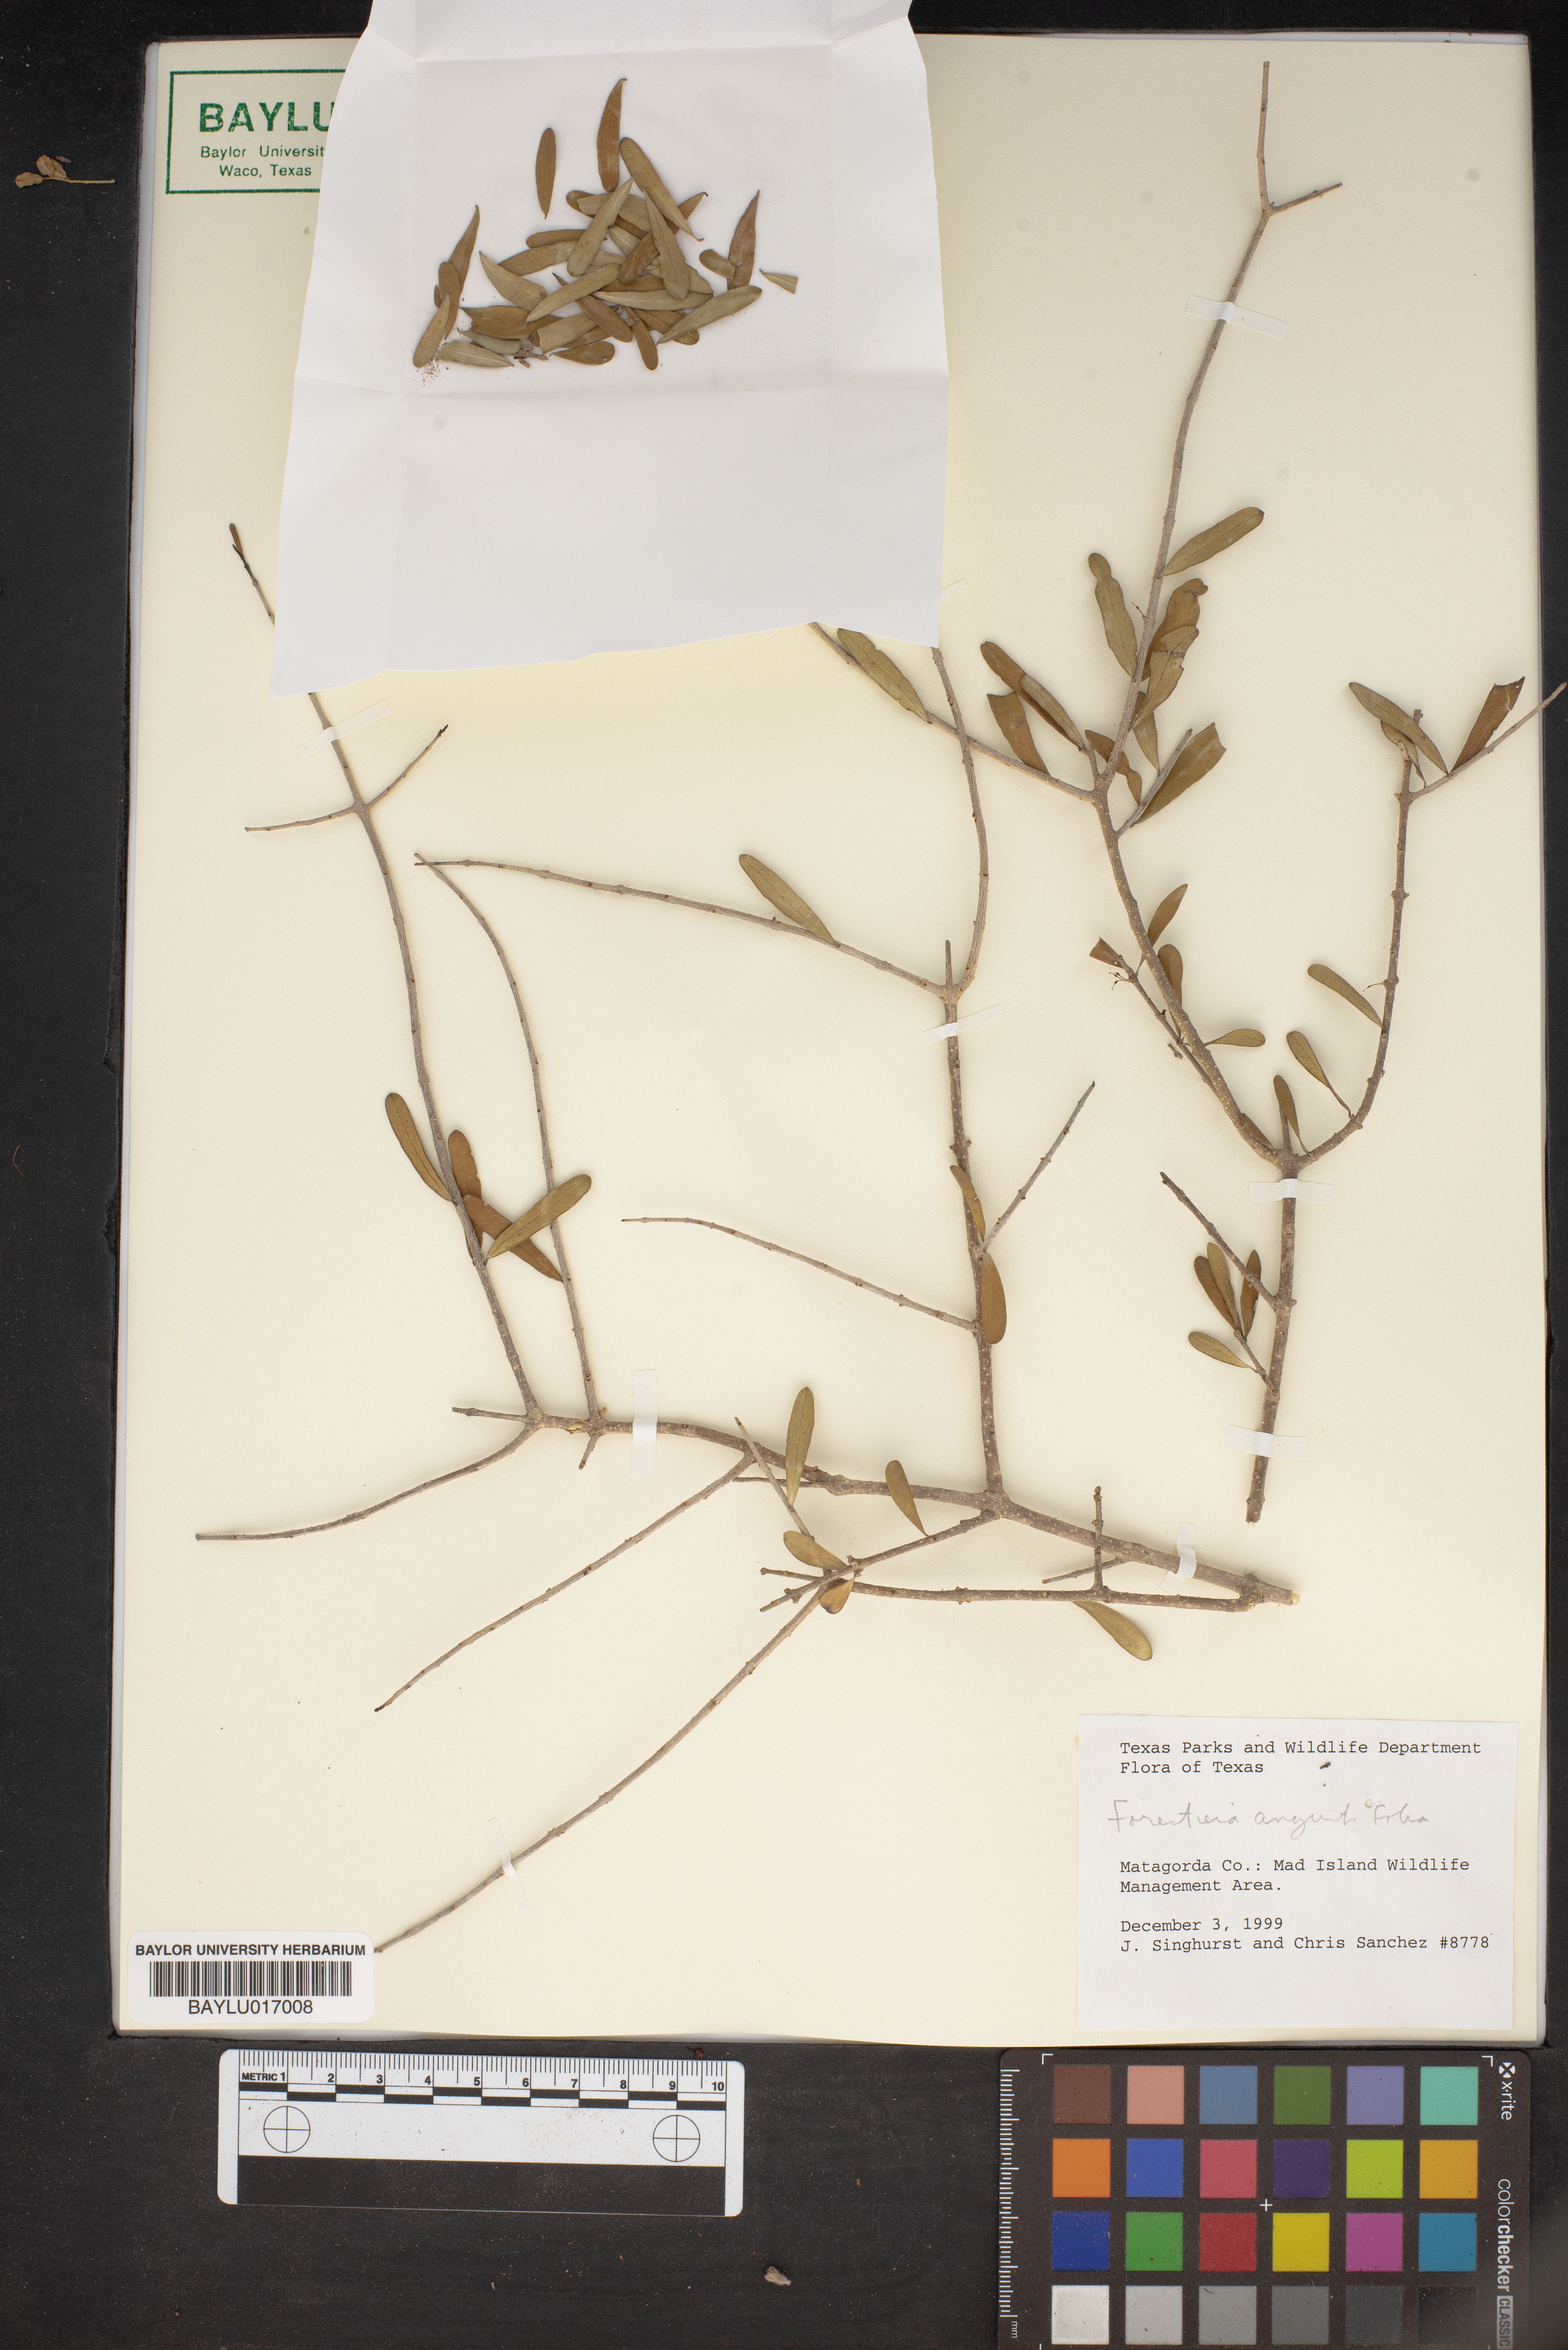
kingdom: Plantae
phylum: Tracheophyta
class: Magnoliopsida
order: Lamiales
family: Oleaceae
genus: Forestiera
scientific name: Forestiera angustifolia
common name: Elbowbush
